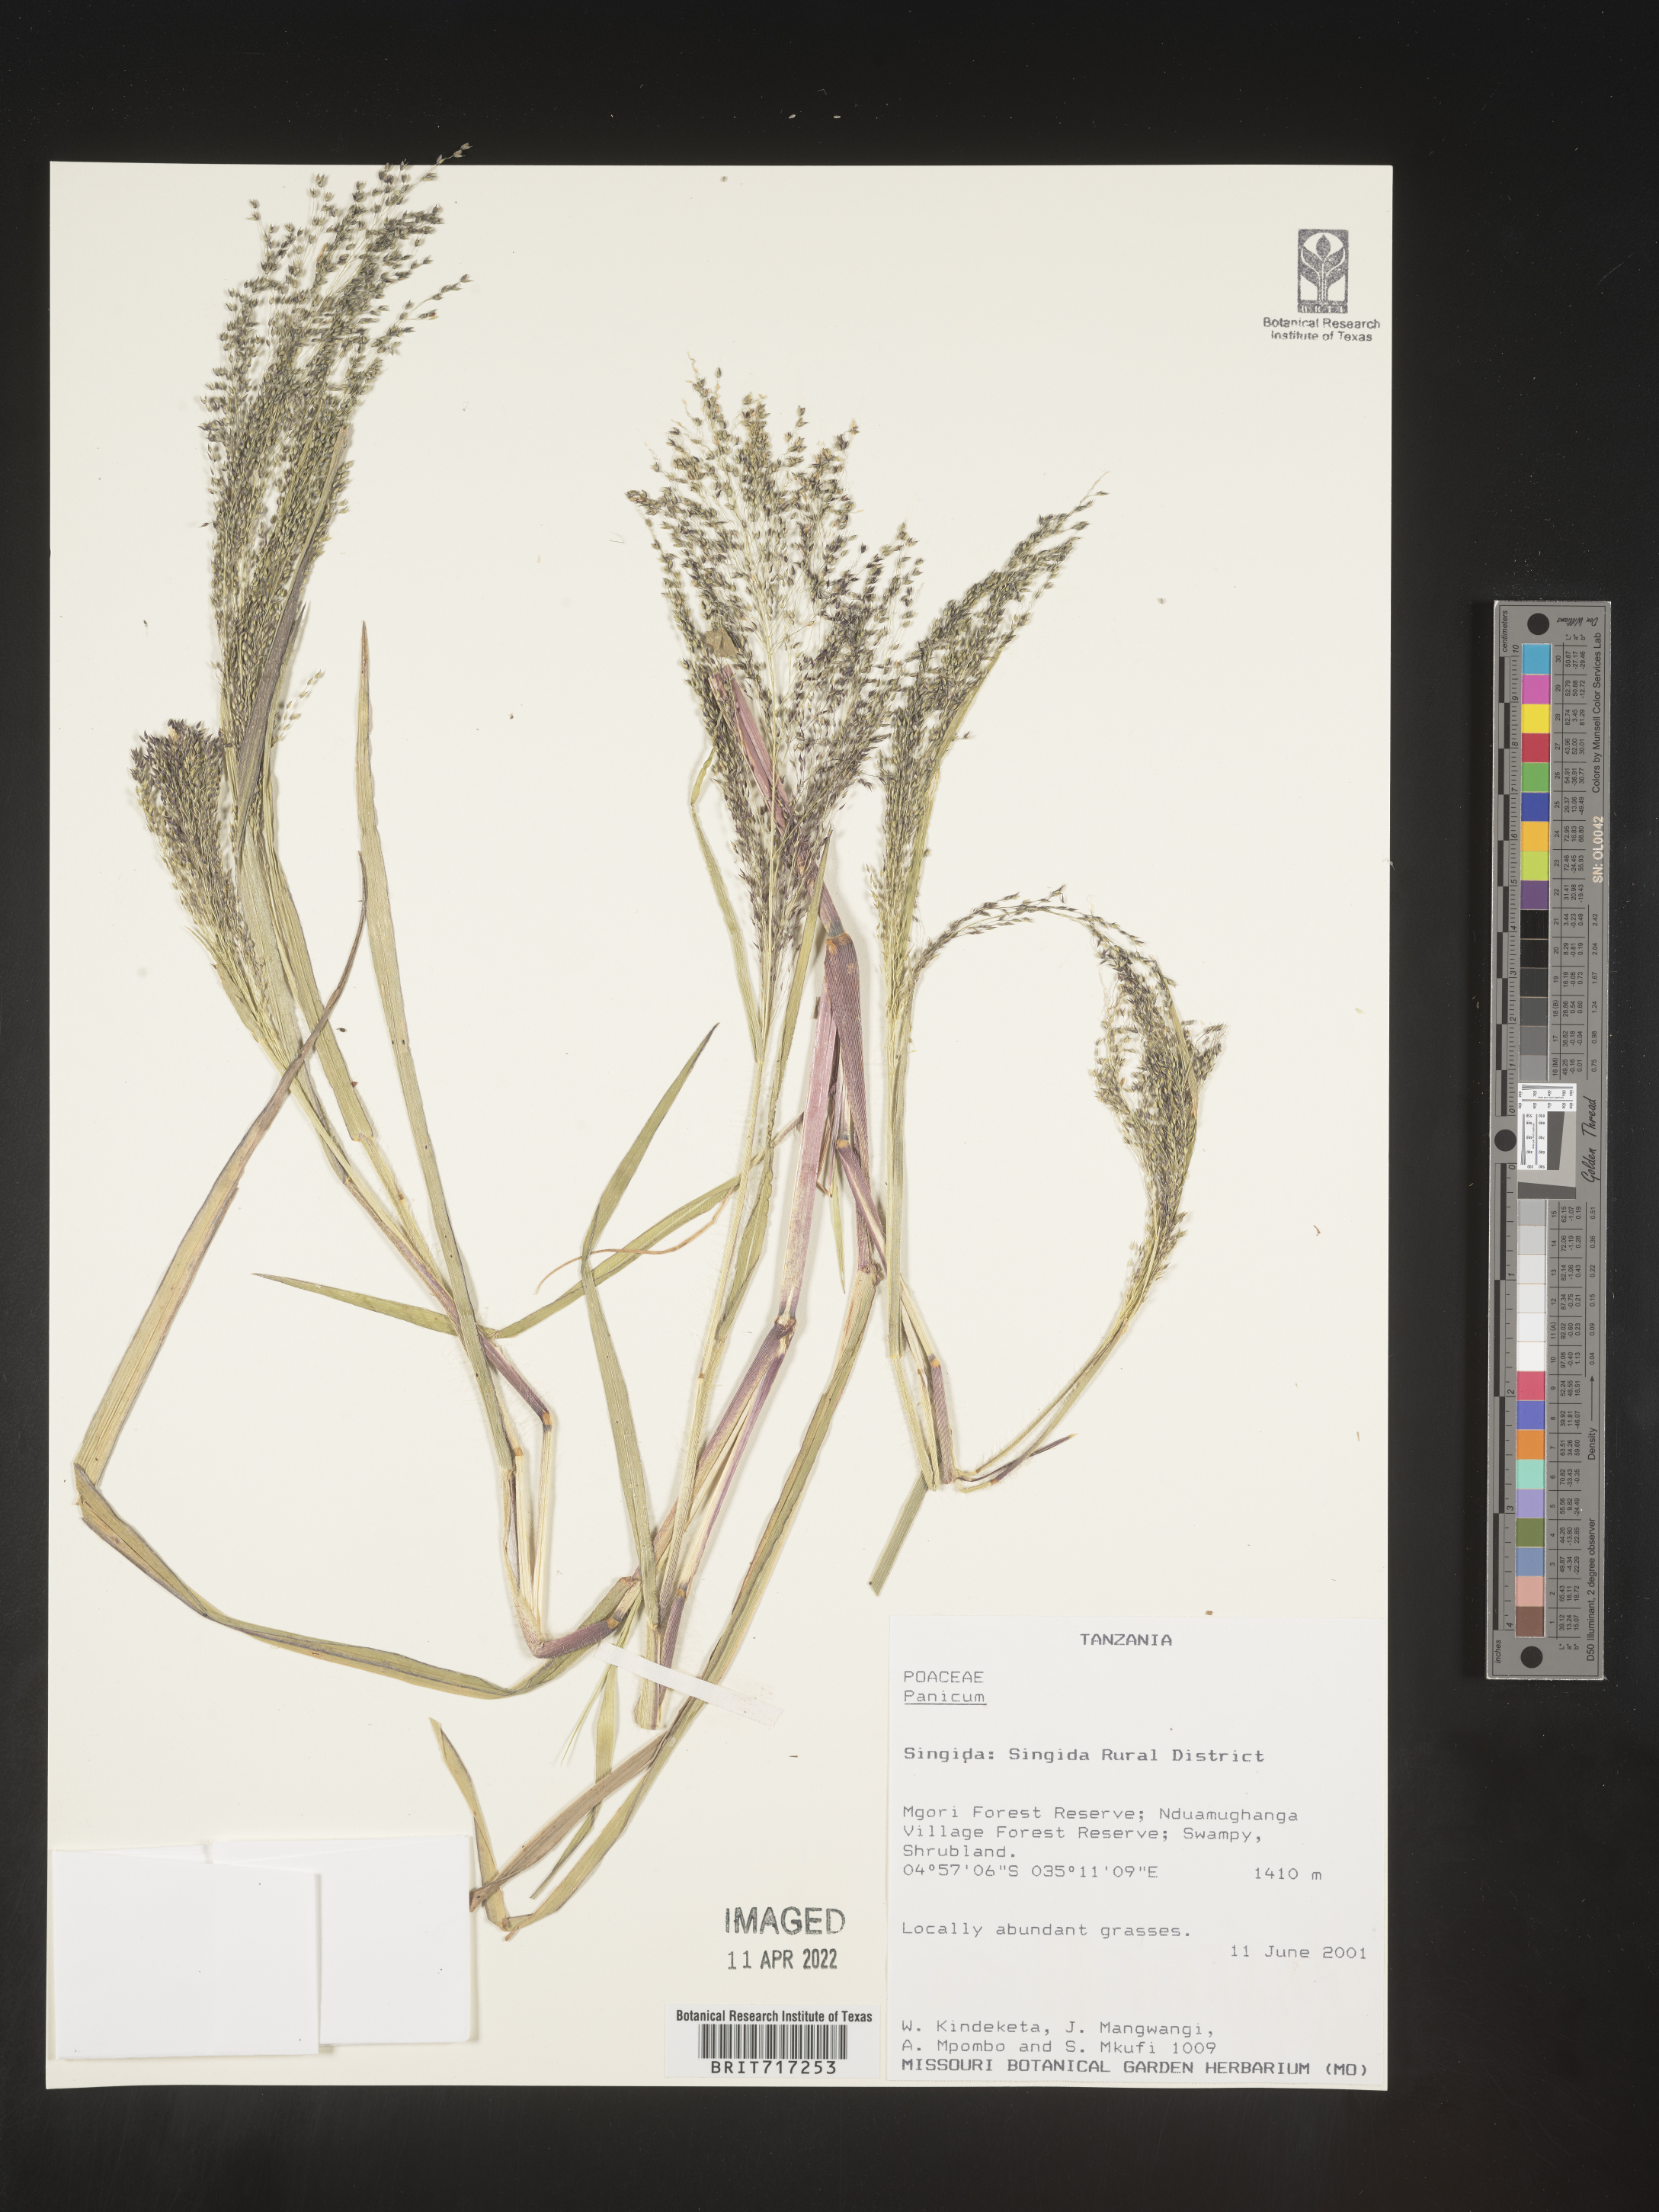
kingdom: Plantae
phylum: Tracheophyta
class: Liliopsida
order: Poales
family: Poaceae
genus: Panicum
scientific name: Panicum
